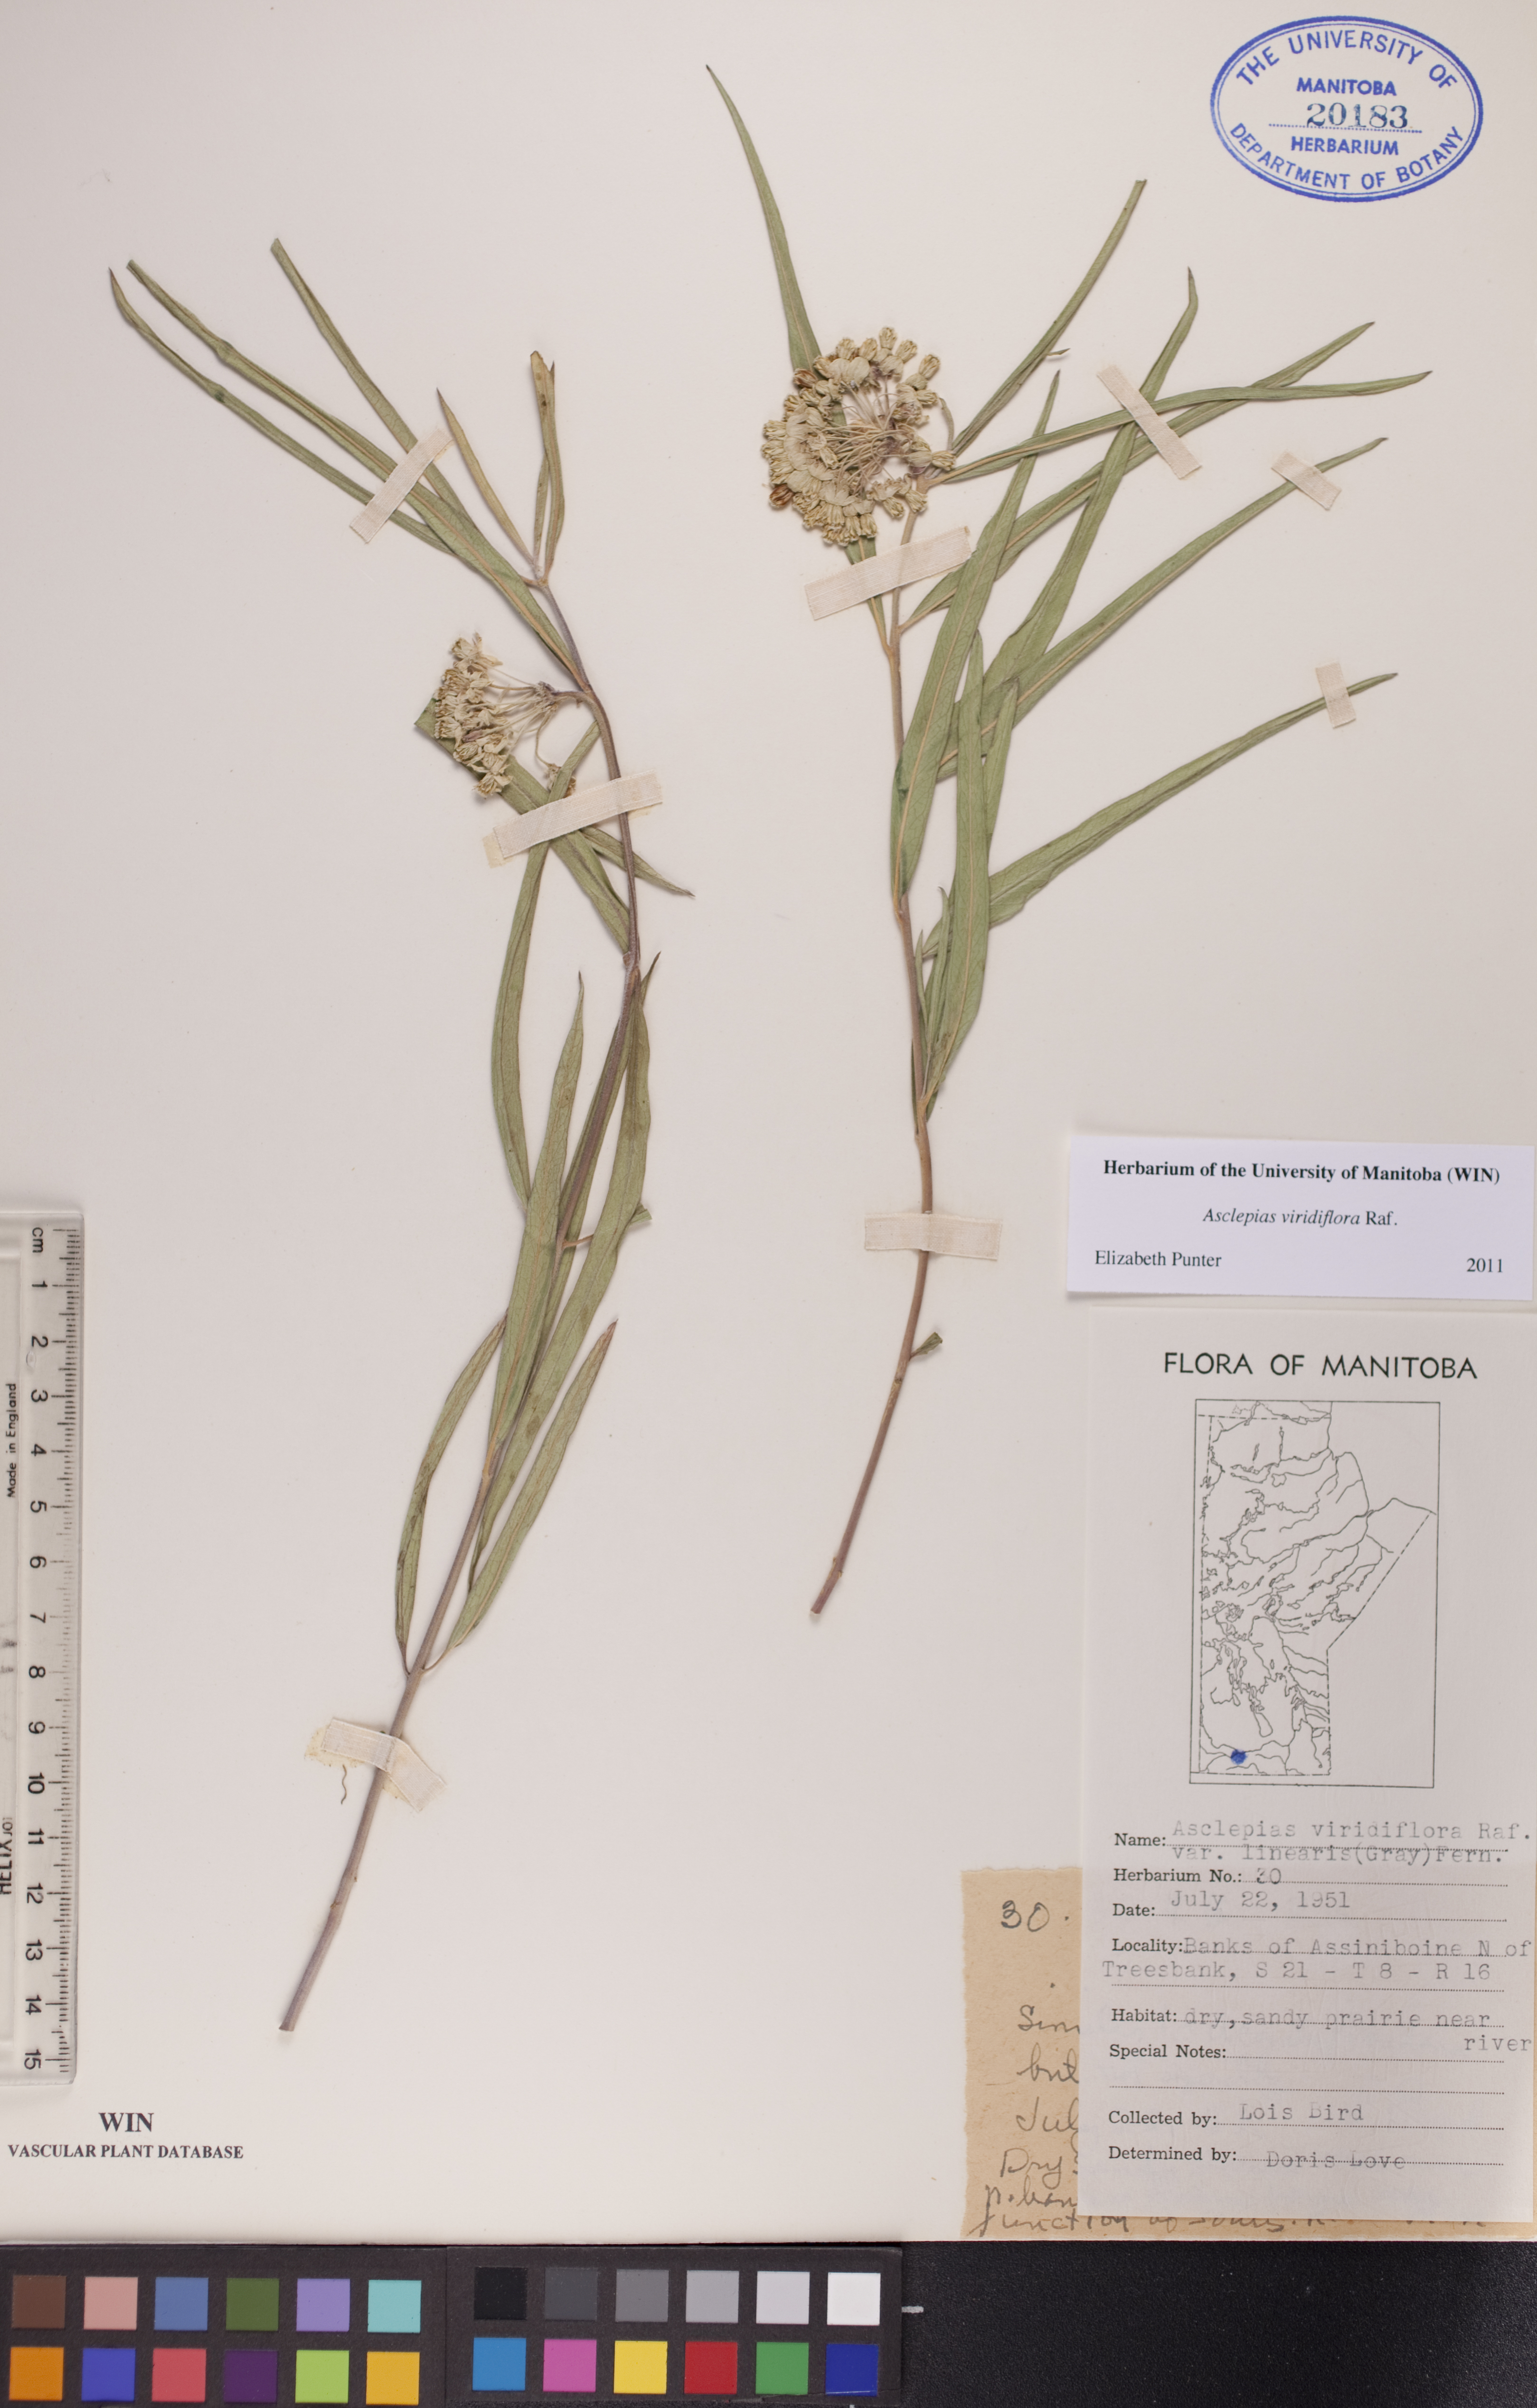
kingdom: Plantae
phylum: Tracheophyta
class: Magnoliopsida
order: Gentianales
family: Apocynaceae
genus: Asclepias
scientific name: Asclepias linearis
